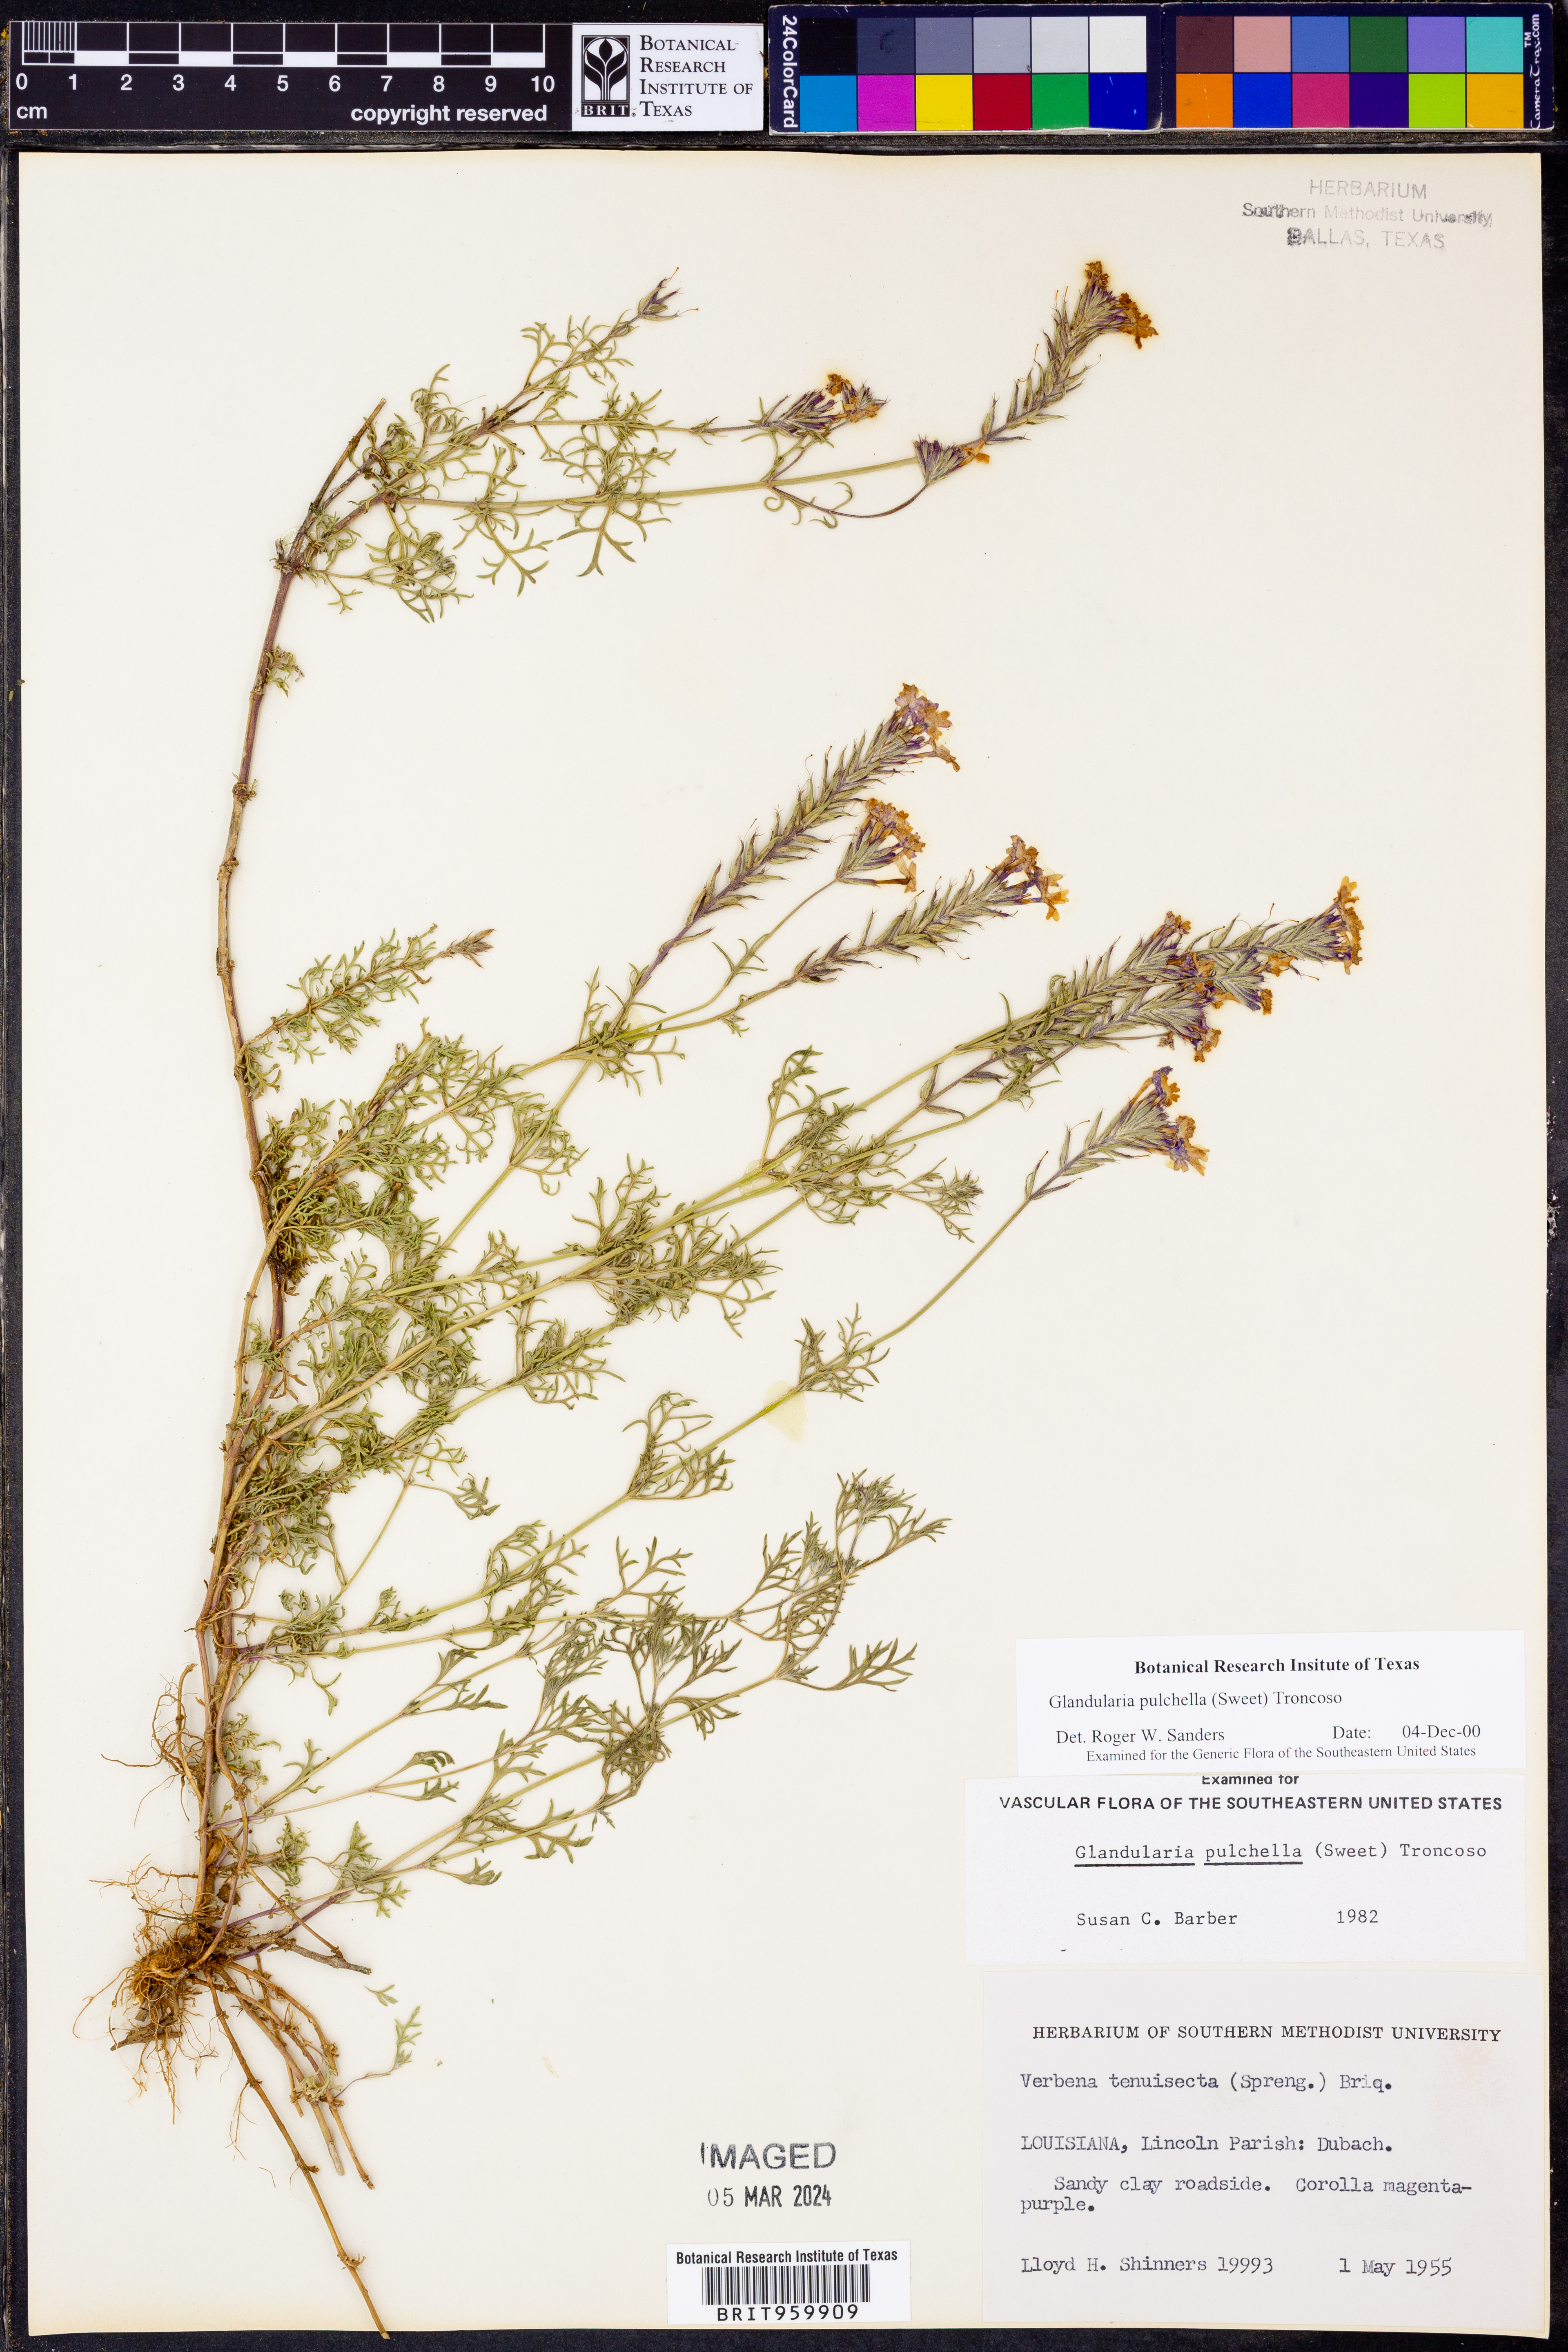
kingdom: Plantae
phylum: Tracheophyta
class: Magnoliopsida
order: Lamiales
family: Verbenaceae
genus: Verbena
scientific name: Verbena tenera
